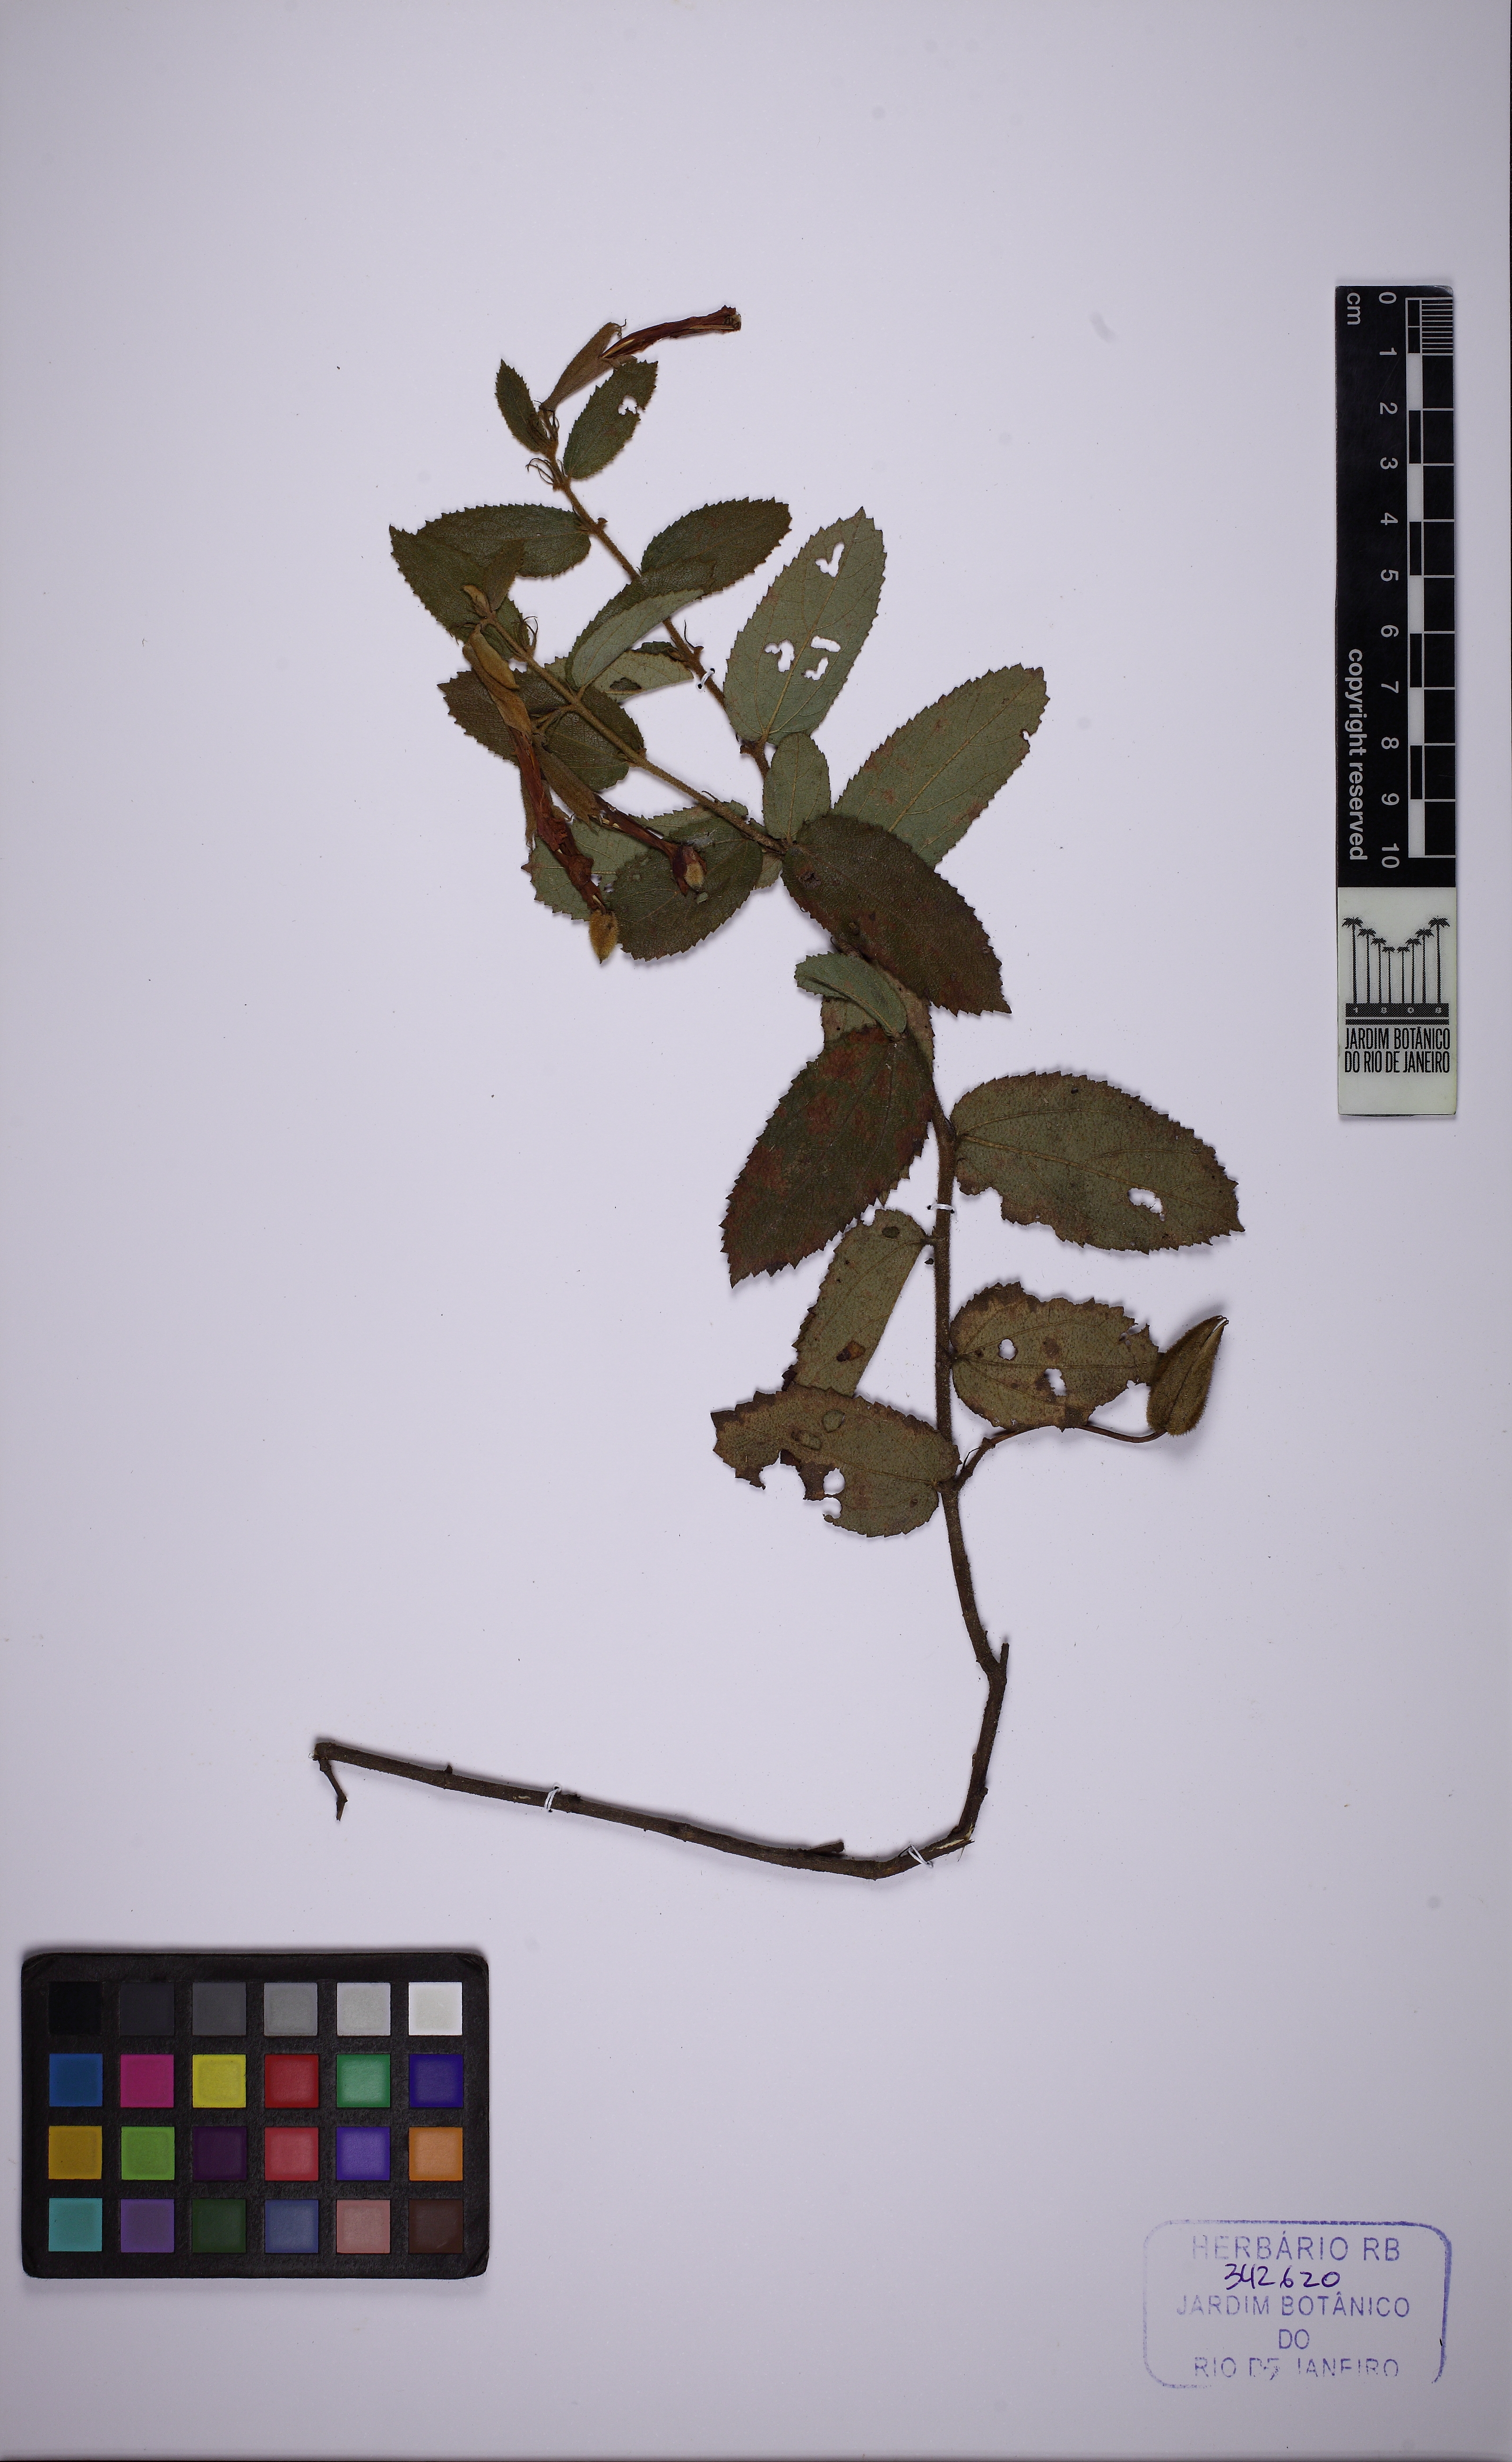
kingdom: Plantae
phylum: Tracheophyta
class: Magnoliopsida
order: Malvales
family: Malvaceae
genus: Helicteres
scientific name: Helicteres
